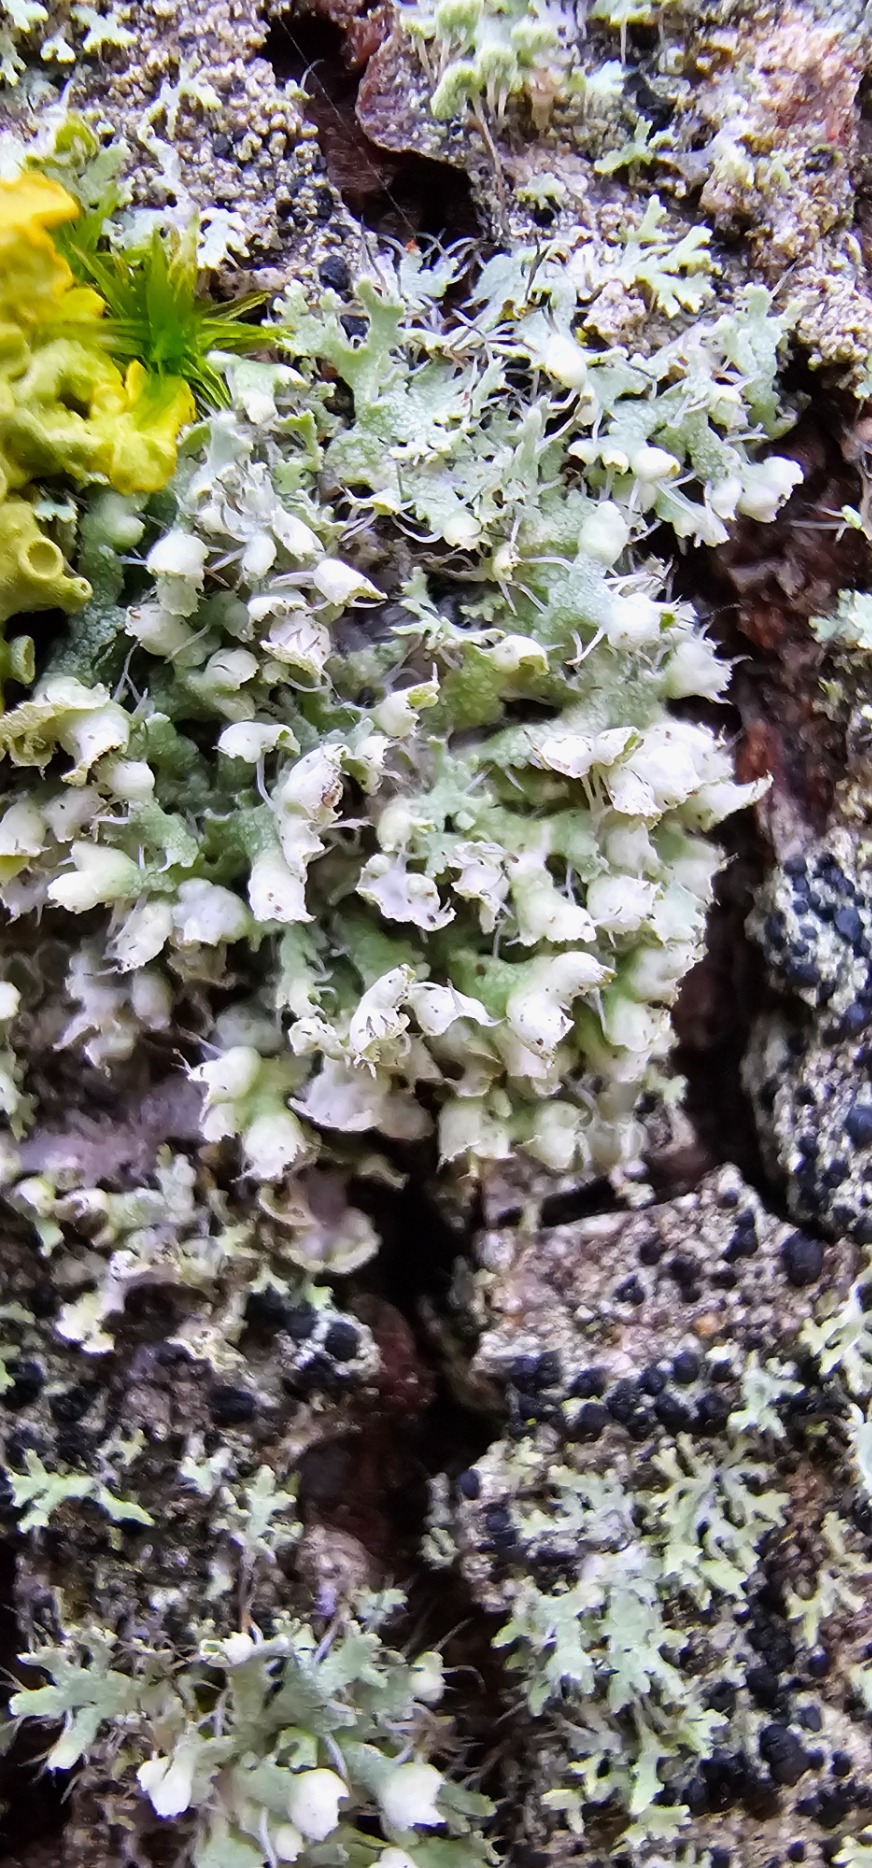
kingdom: Fungi
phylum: Ascomycota
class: Lecanoromycetes
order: Caliciales
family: Physciaceae
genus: Physcia
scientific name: Physcia adscendens
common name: Hætte-rosetlav
